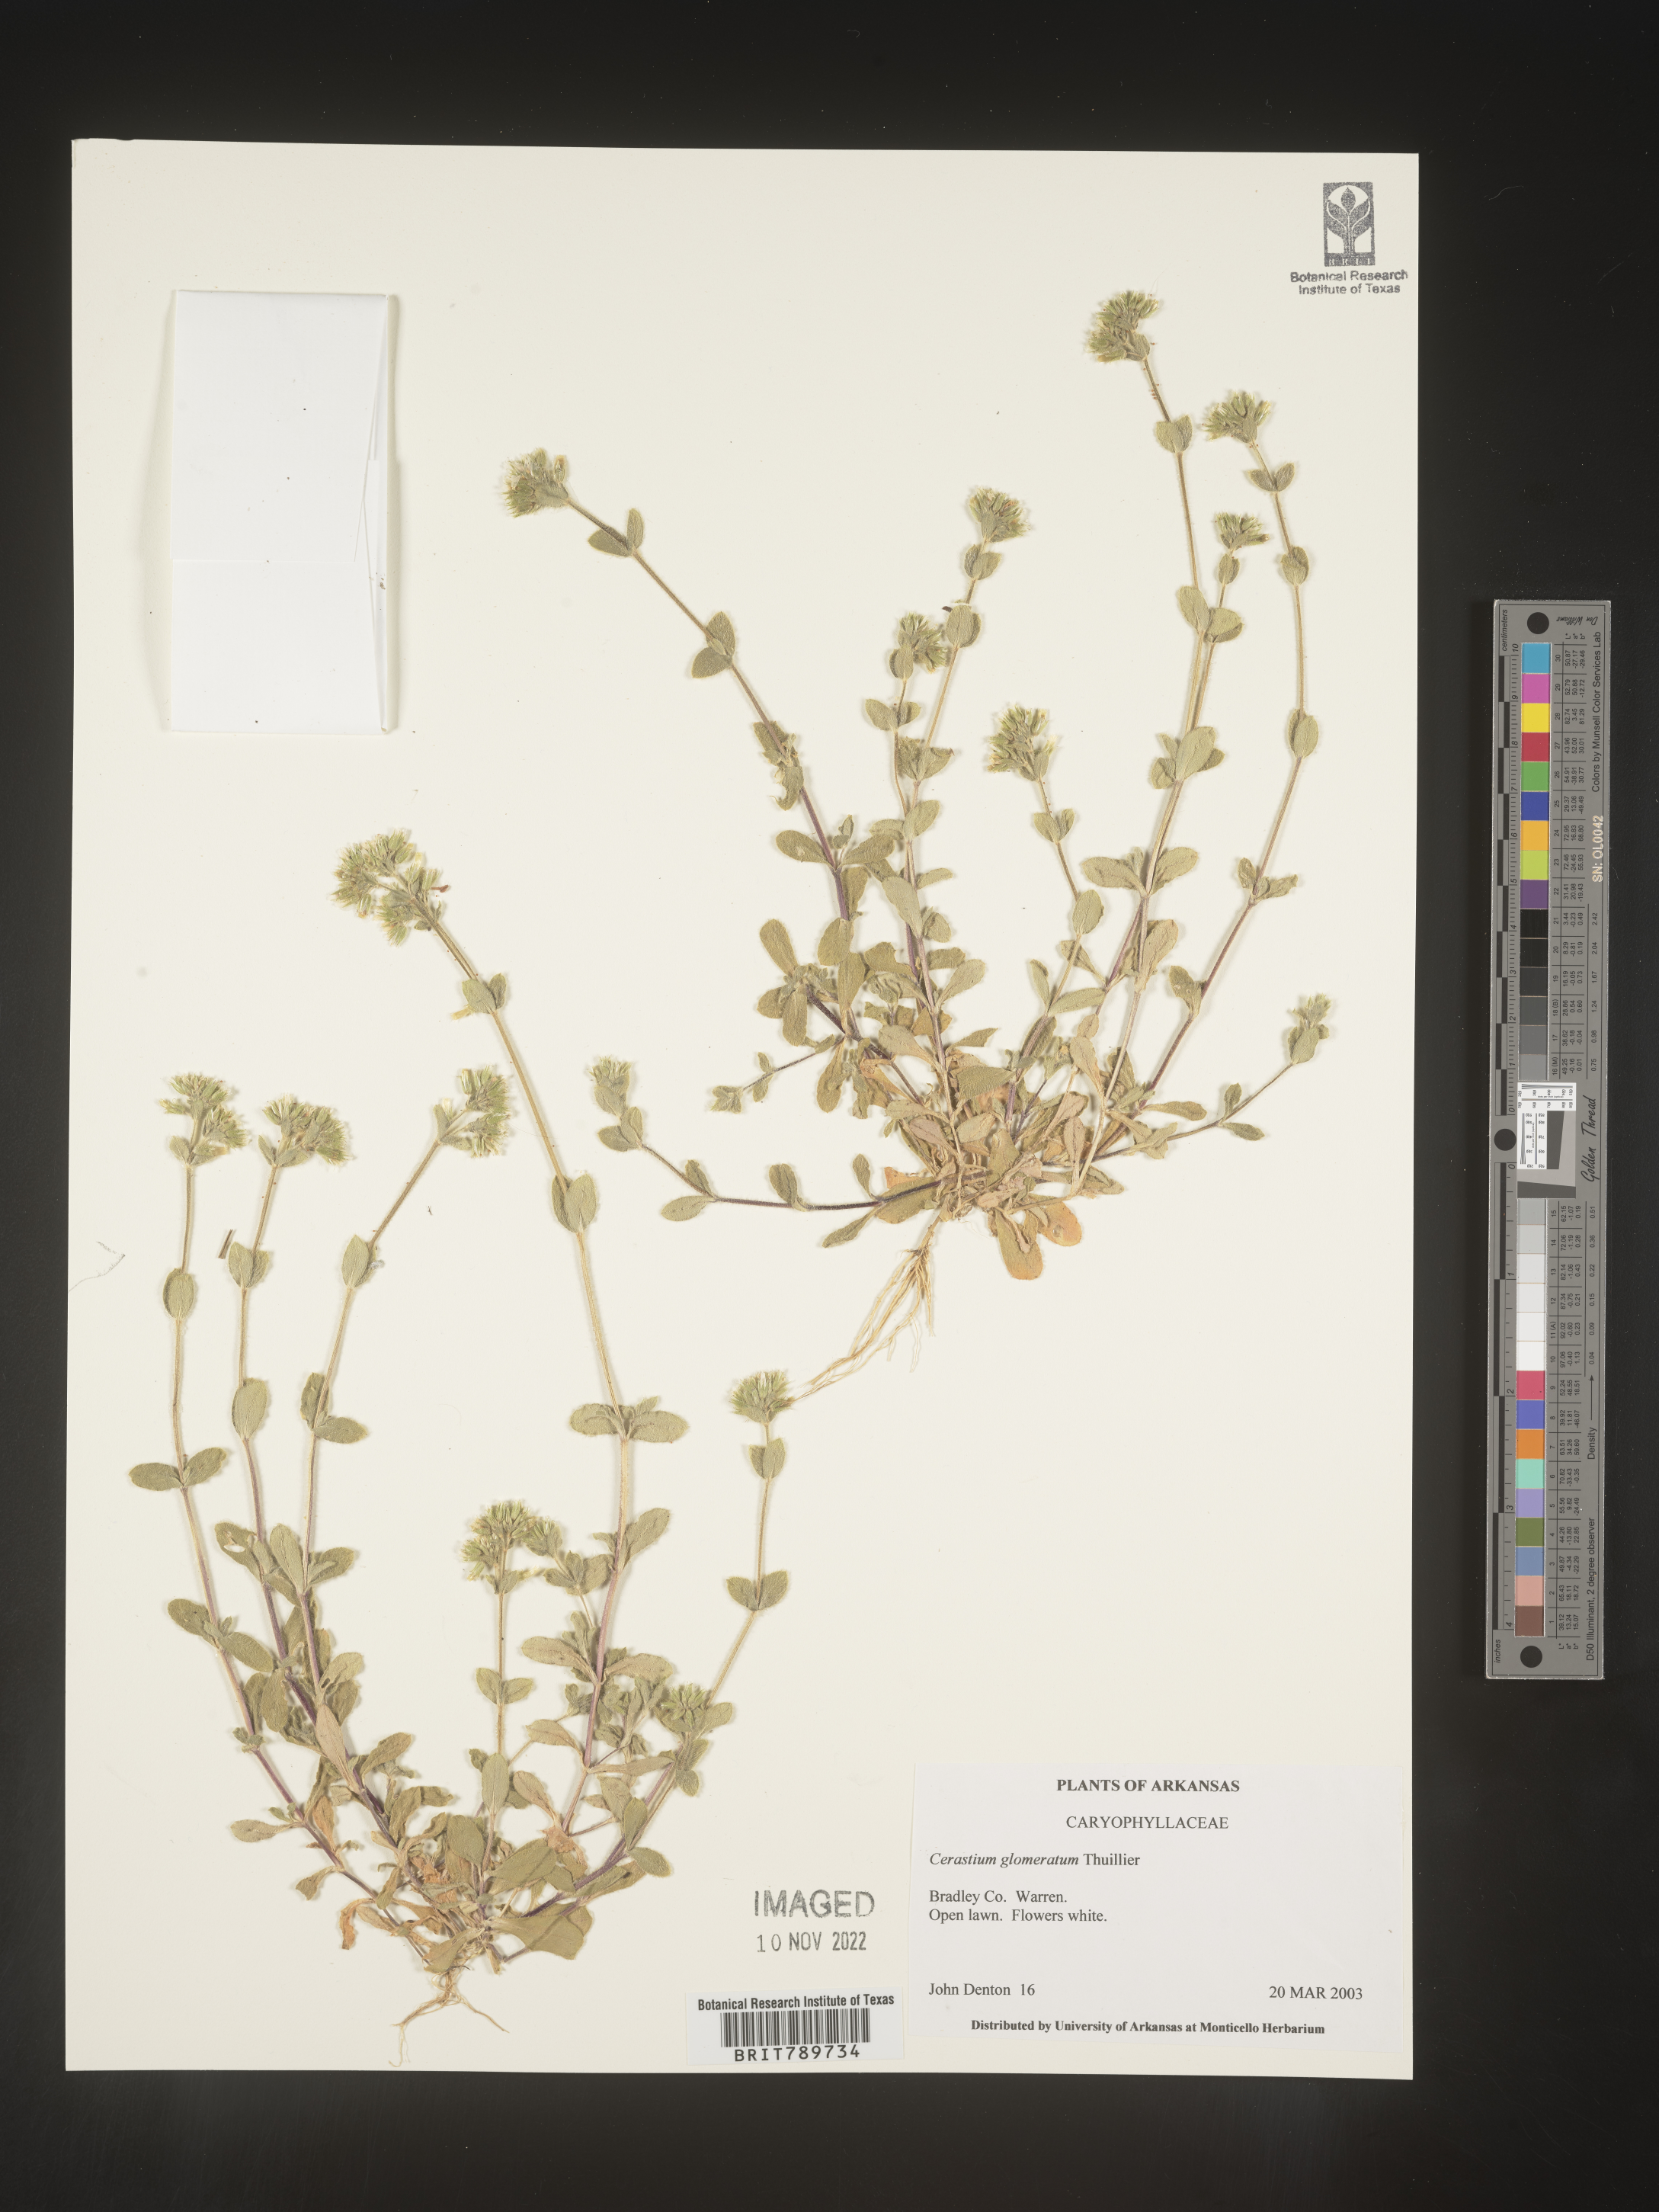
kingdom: Plantae
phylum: Tracheophyta
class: Magnoliopsida
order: Caryophyllales
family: Caryophyllaceae
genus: Cerastium
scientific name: Cerastium glomeratum
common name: Sticky chickweed
